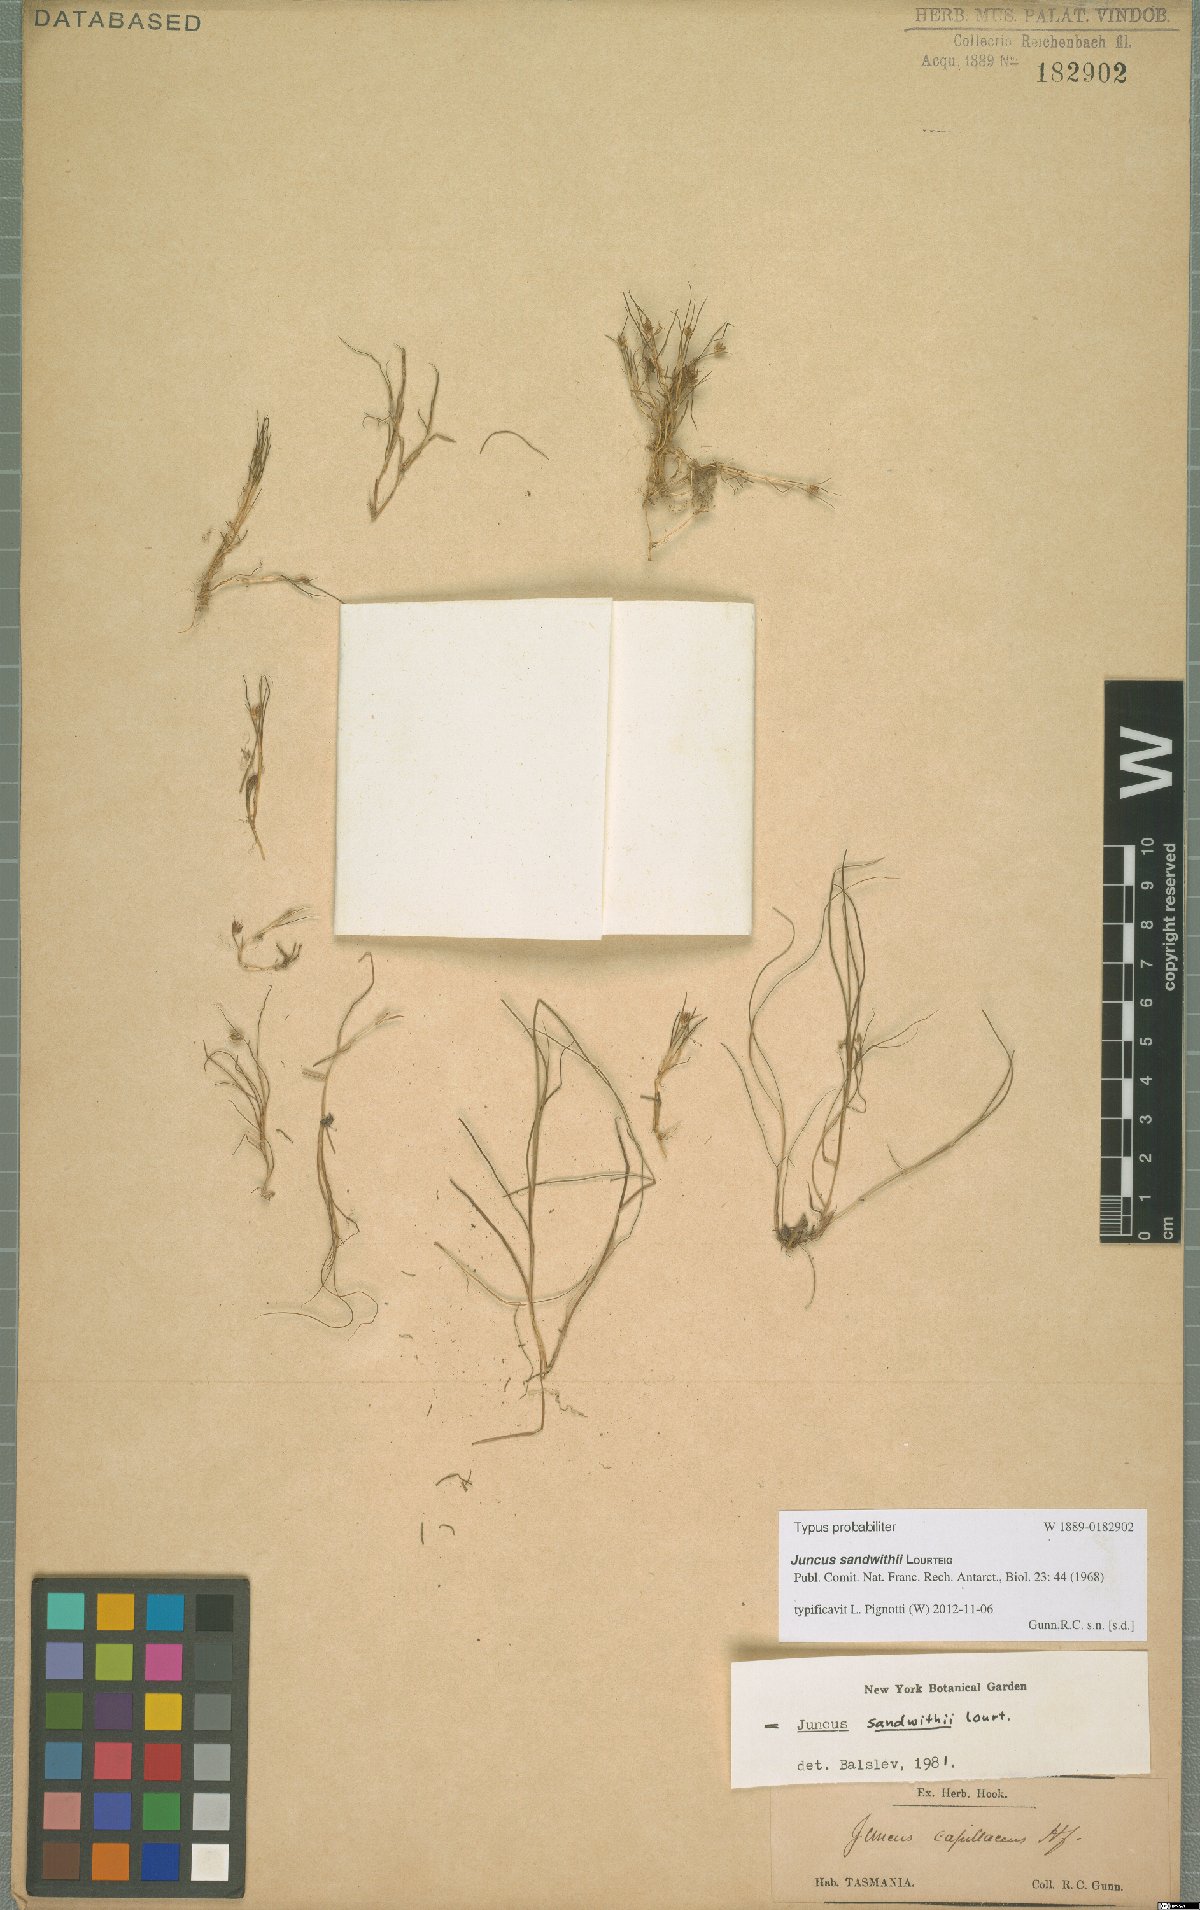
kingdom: Plantae
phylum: Tracheophyta
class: Liliopsida
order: Poales
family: Juncaceae
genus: Juncus
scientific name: Juncus sandwithii
